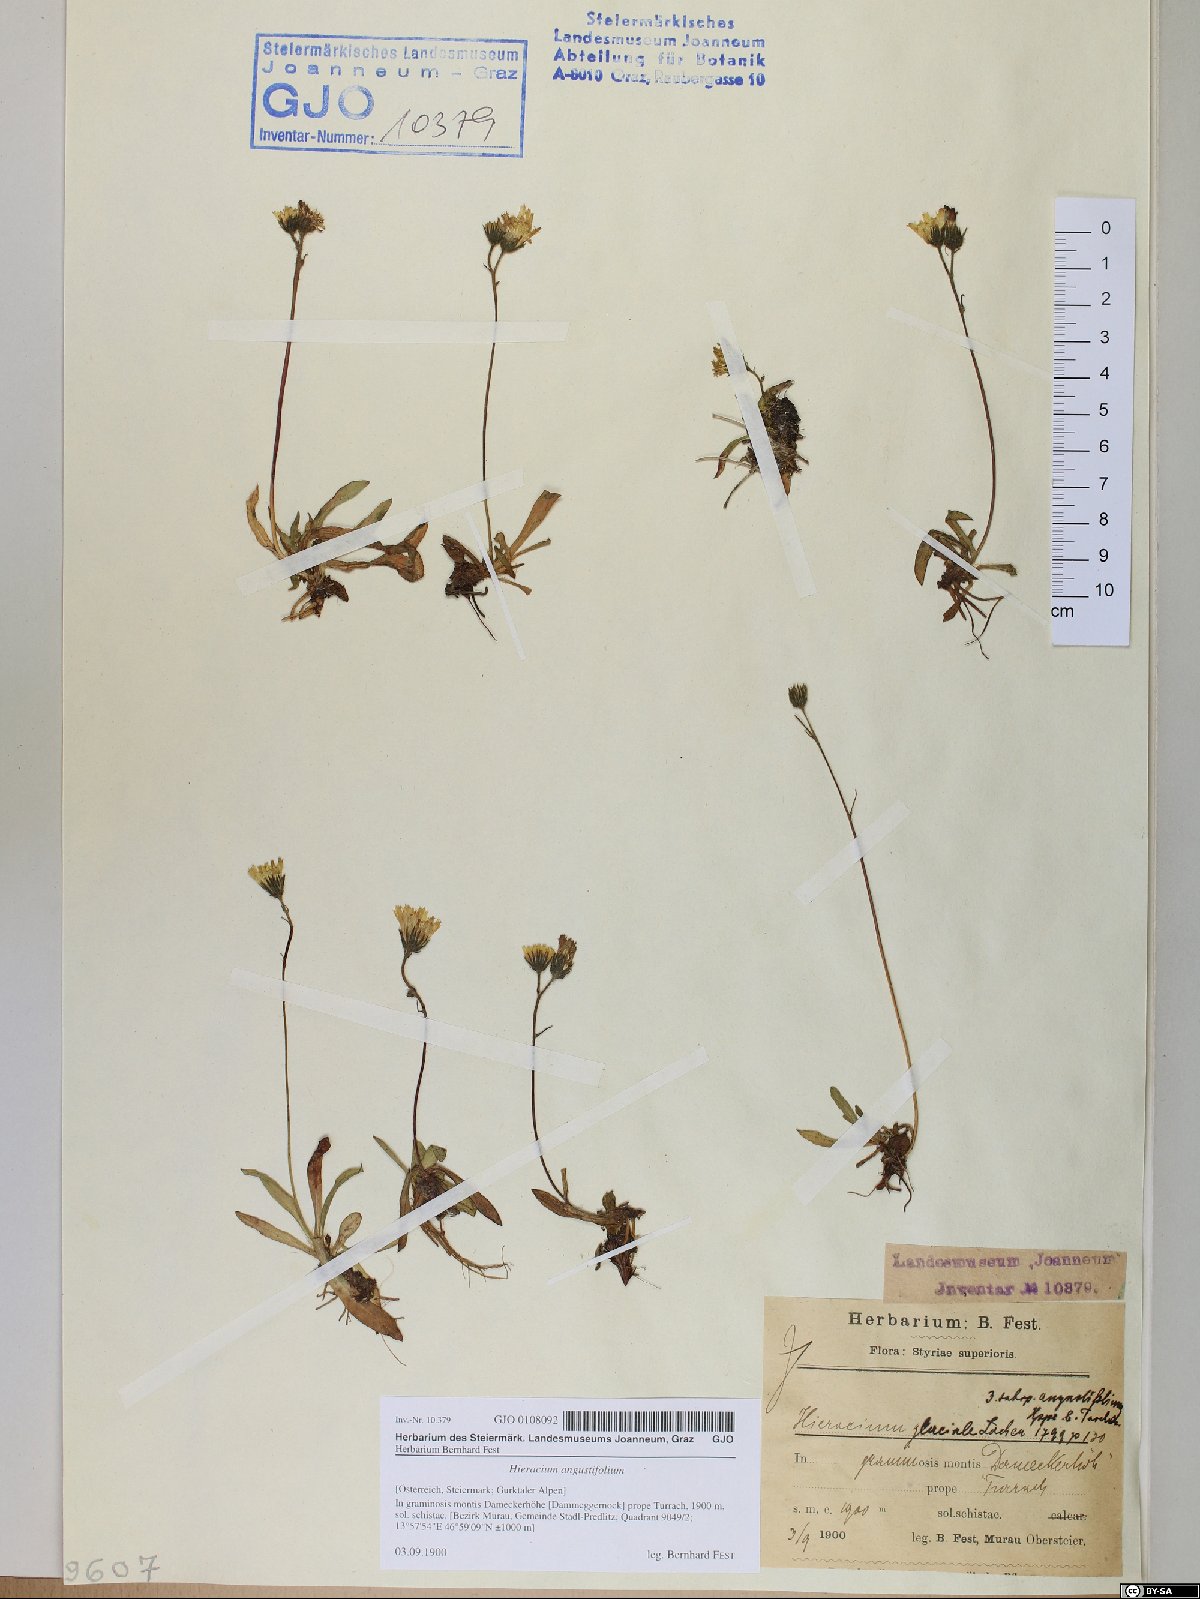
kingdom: Plantae
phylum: Tracheophyta
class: Magnoliopsida
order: Asterales
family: Asteraceae
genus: Pilosella
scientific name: Pilosella glacialis
